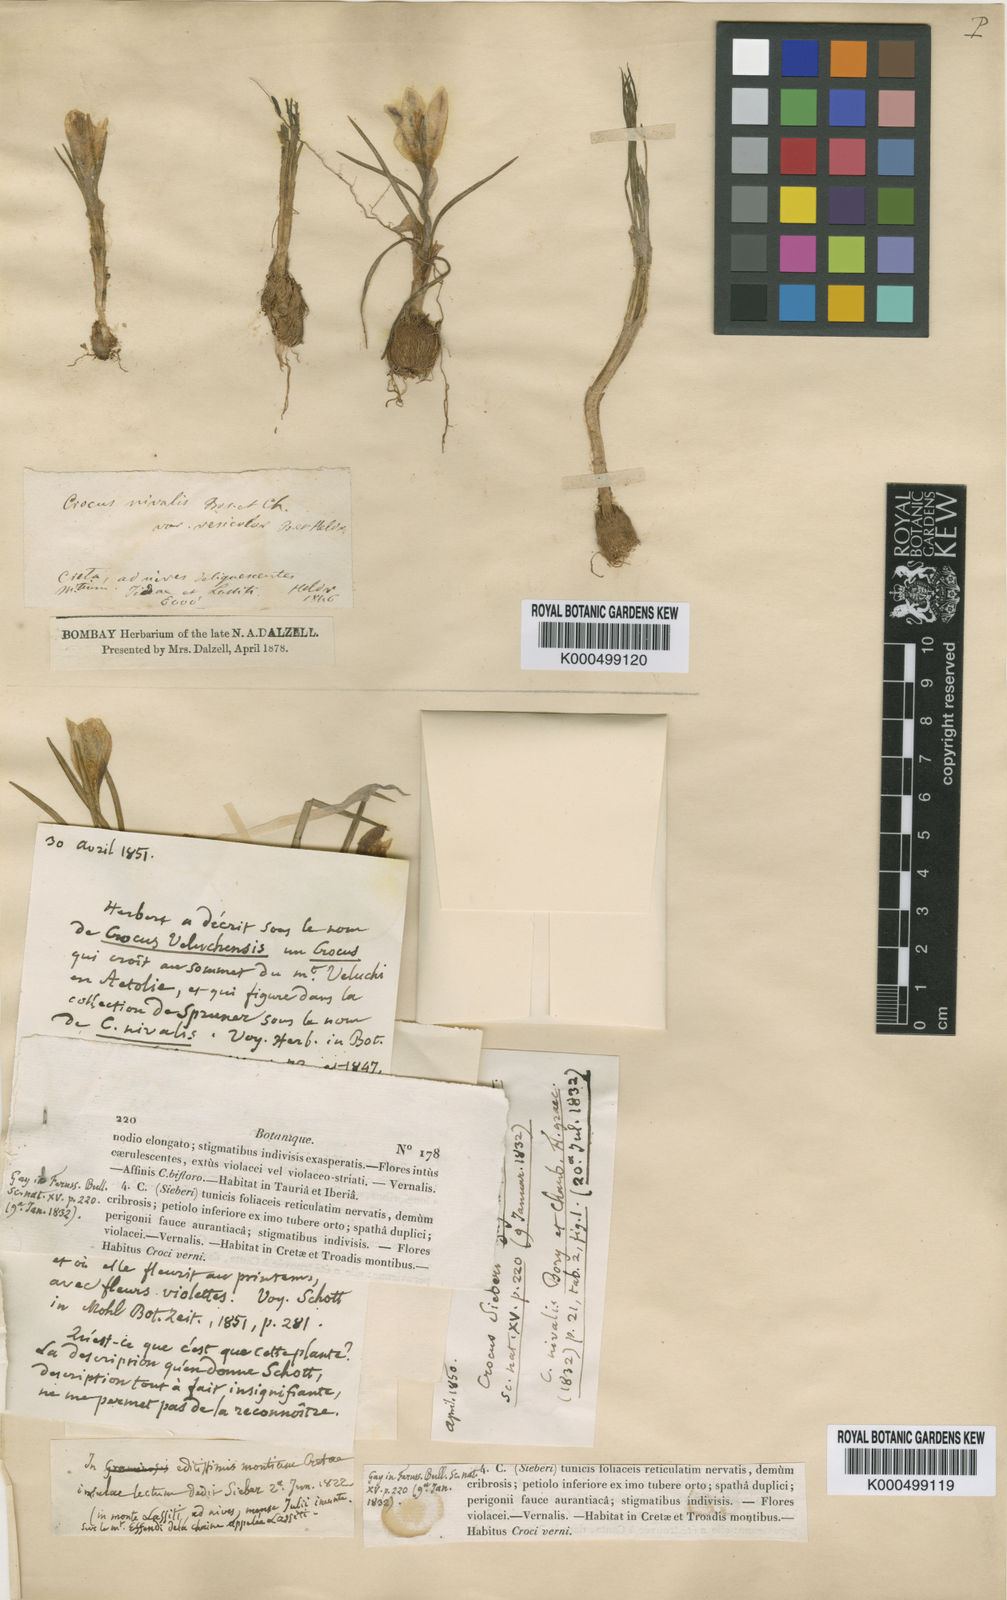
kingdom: Plantae
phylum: Tracheophyta
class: Liliopsida
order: Asparagales
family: Iridaceae
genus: Crocus
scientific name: Crocus sieberi
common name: Sieber's crocus
